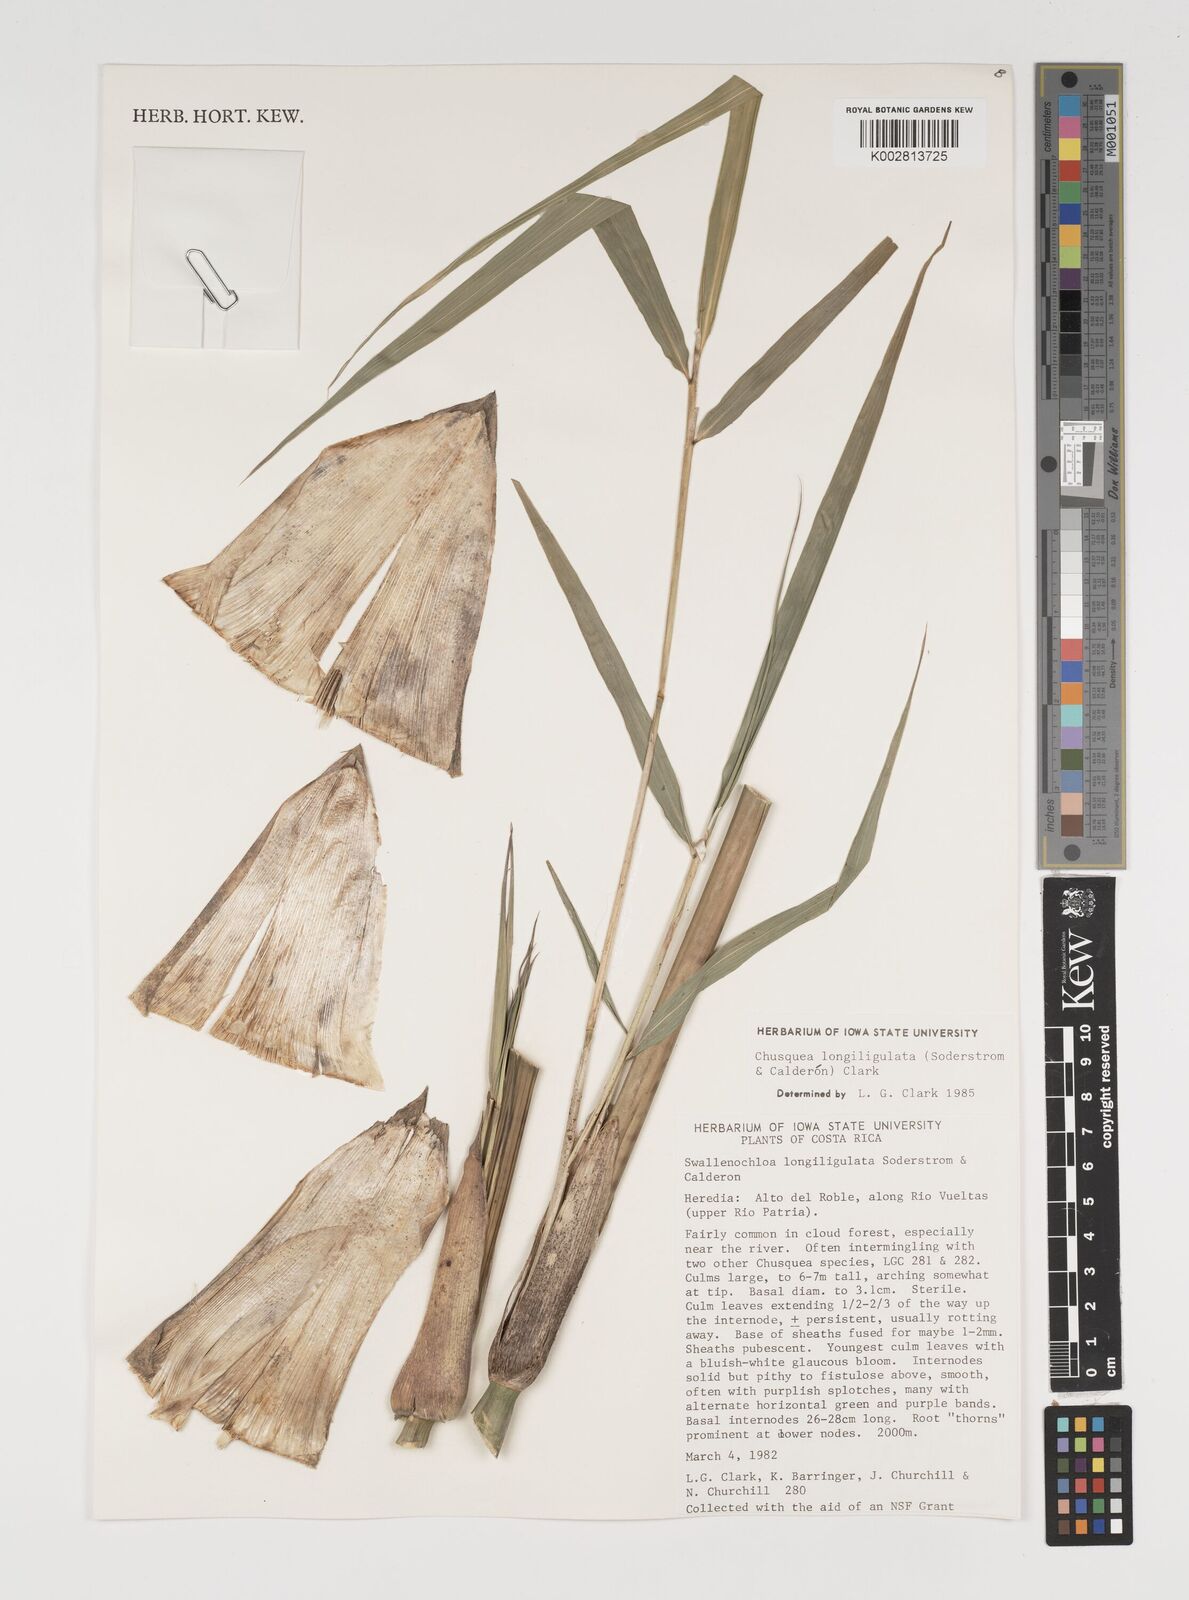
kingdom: Plantae
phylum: Tracheophyta
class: Liliopsida
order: Poales
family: Poaceae
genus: Chusquea
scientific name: Chusquea longiligulata
